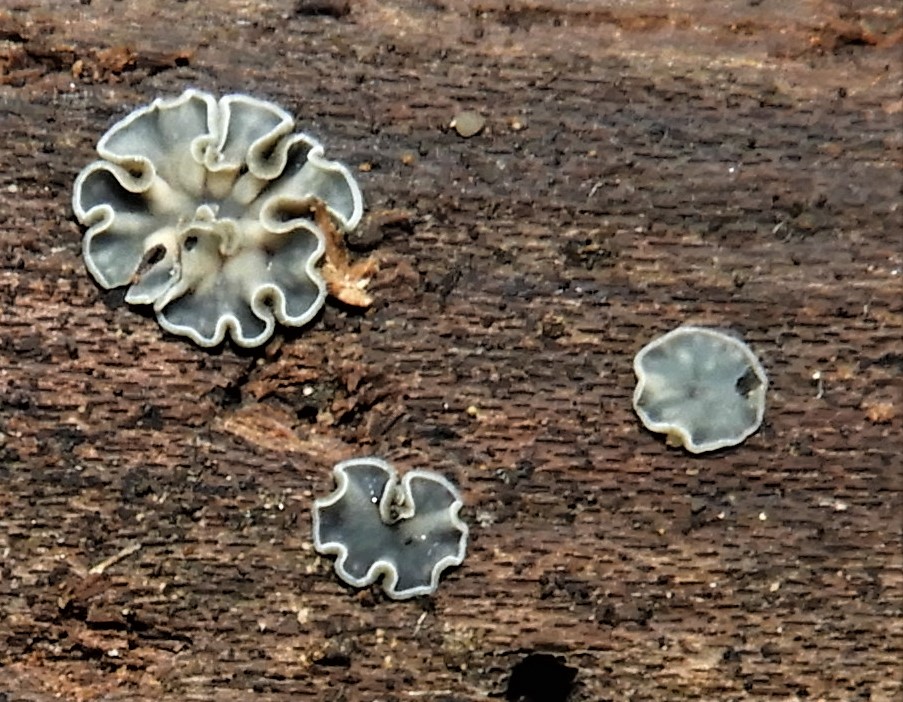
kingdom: Fungi
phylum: Ascomycota
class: Leotiomycetes
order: Helotiales
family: Mollisiaceae
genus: Mollisia
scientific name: Mollisia
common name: gråskive
